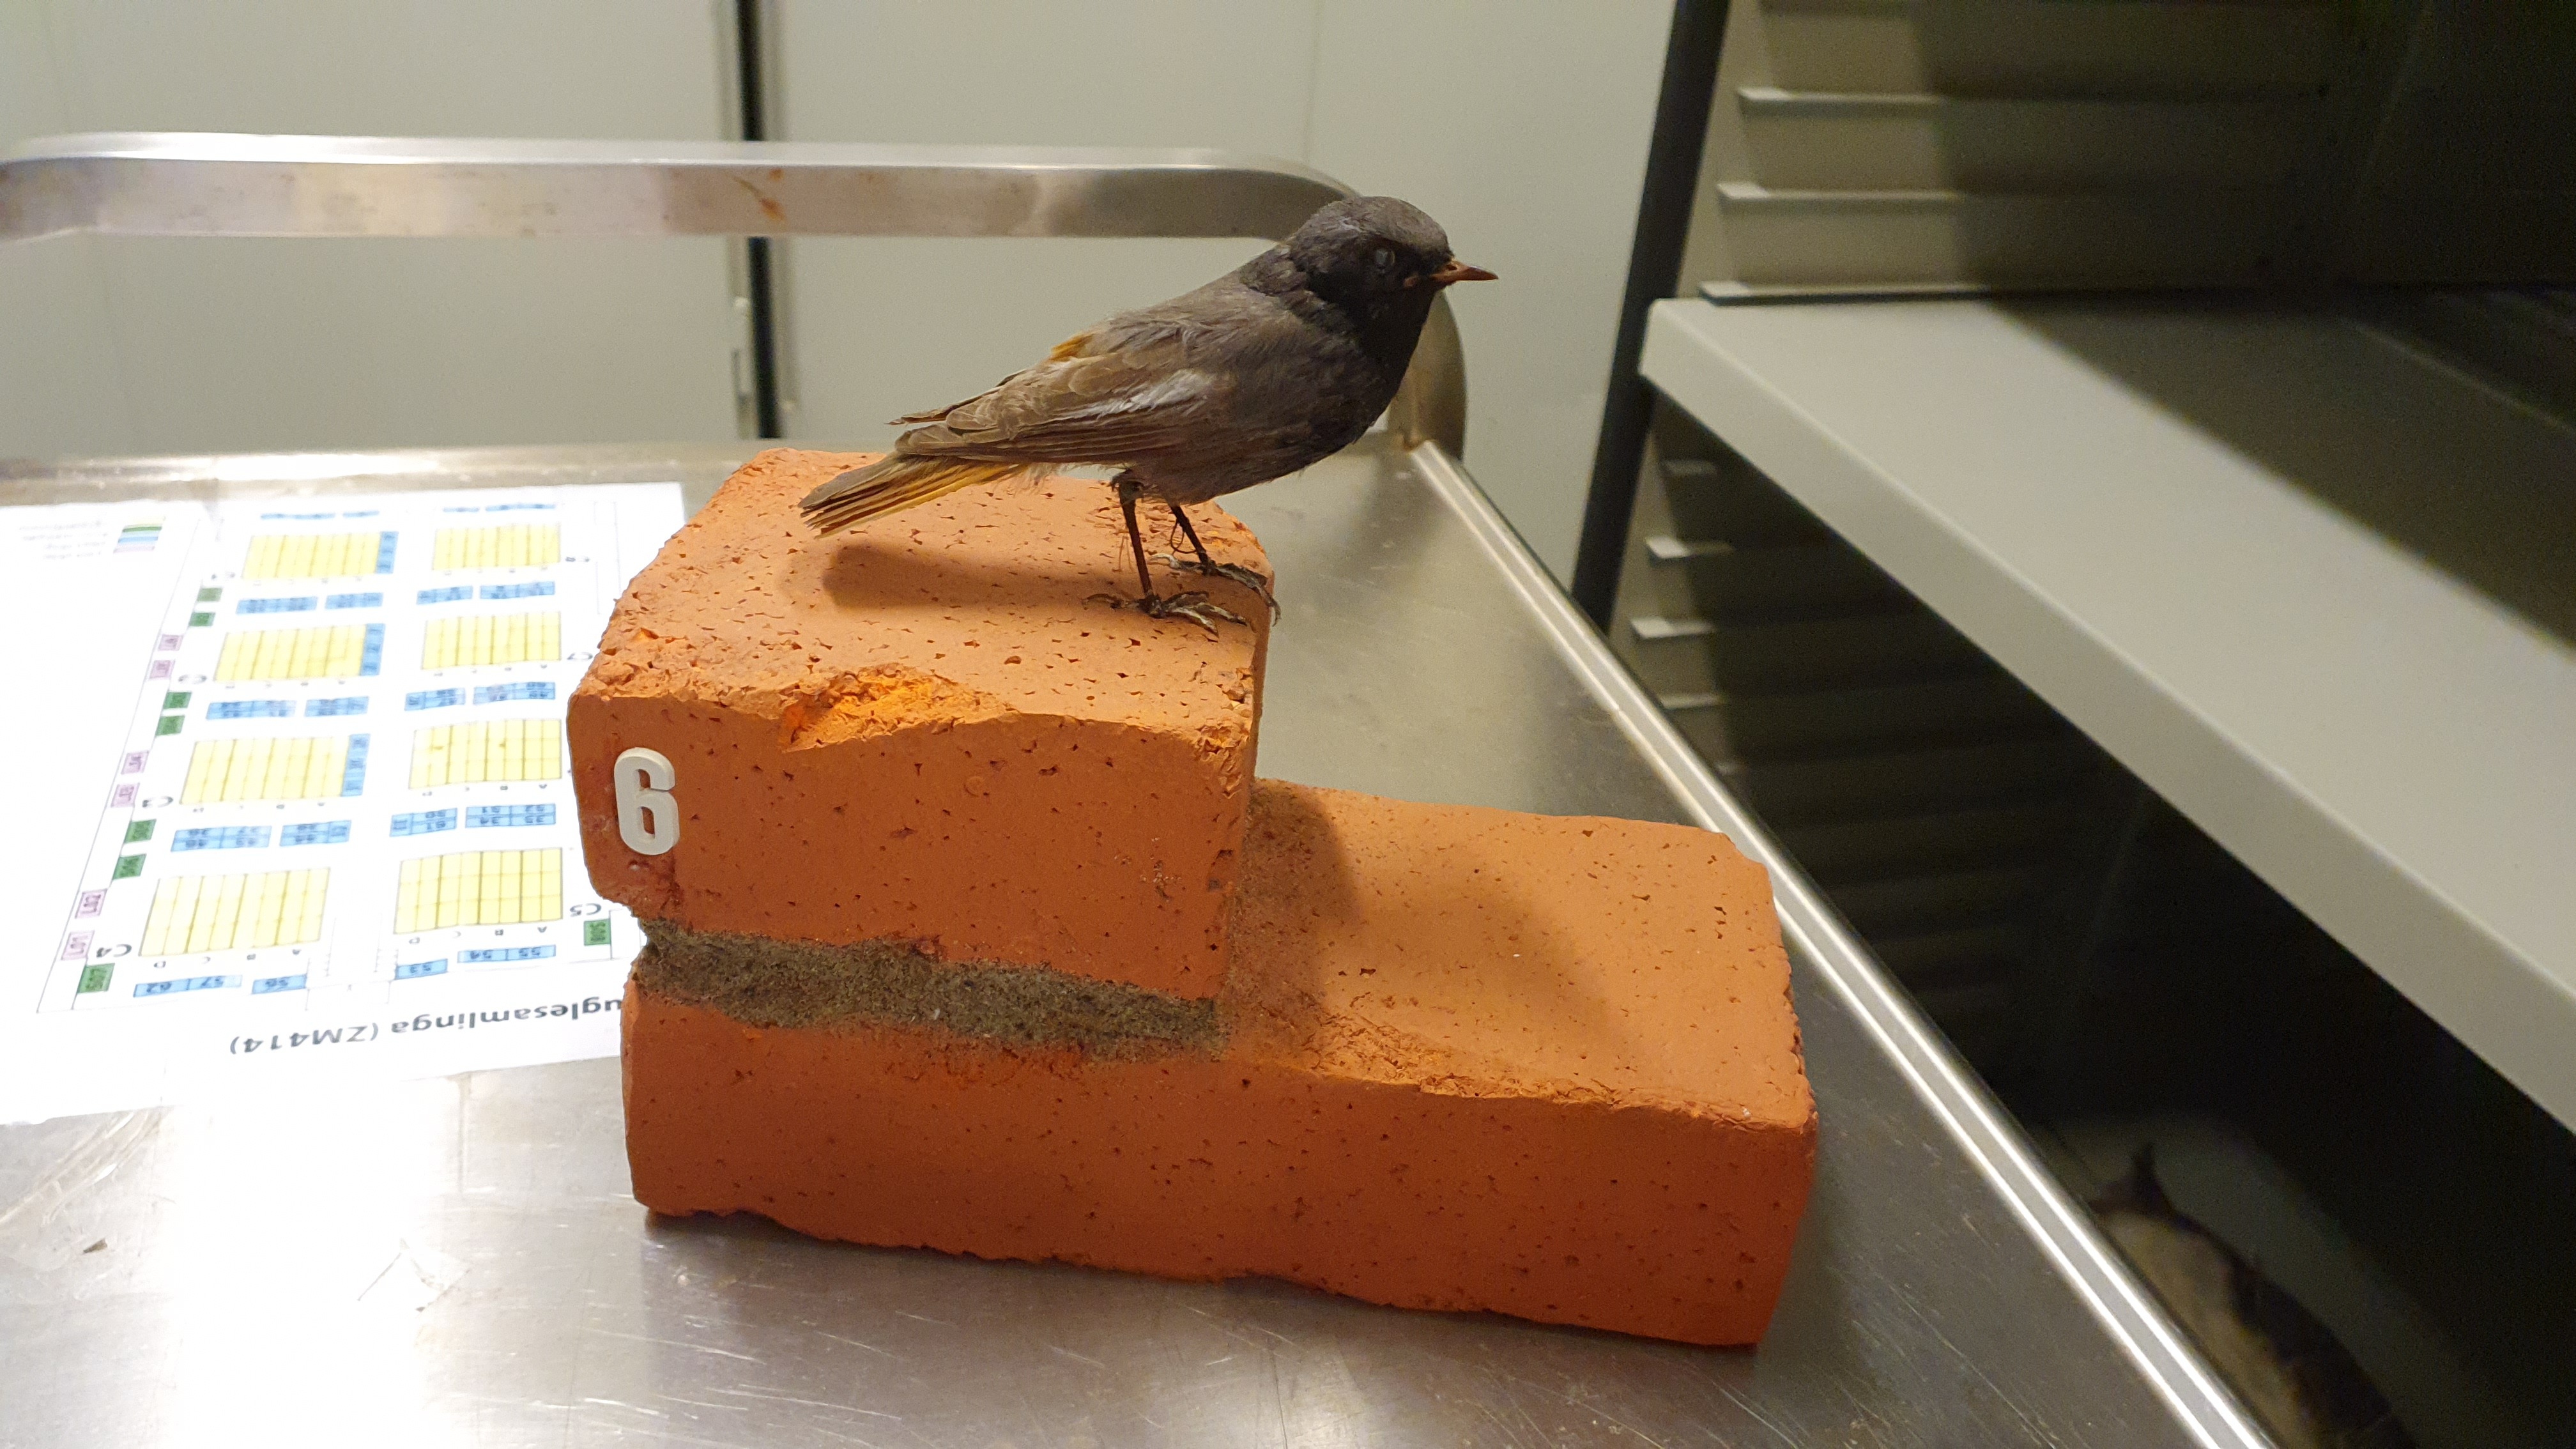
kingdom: Animalia
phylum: Chordata
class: Aves
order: Passeriformes
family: Muscicapidae
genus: Phoenicurus
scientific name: Phoenicurus ochruros
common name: Black redstart
